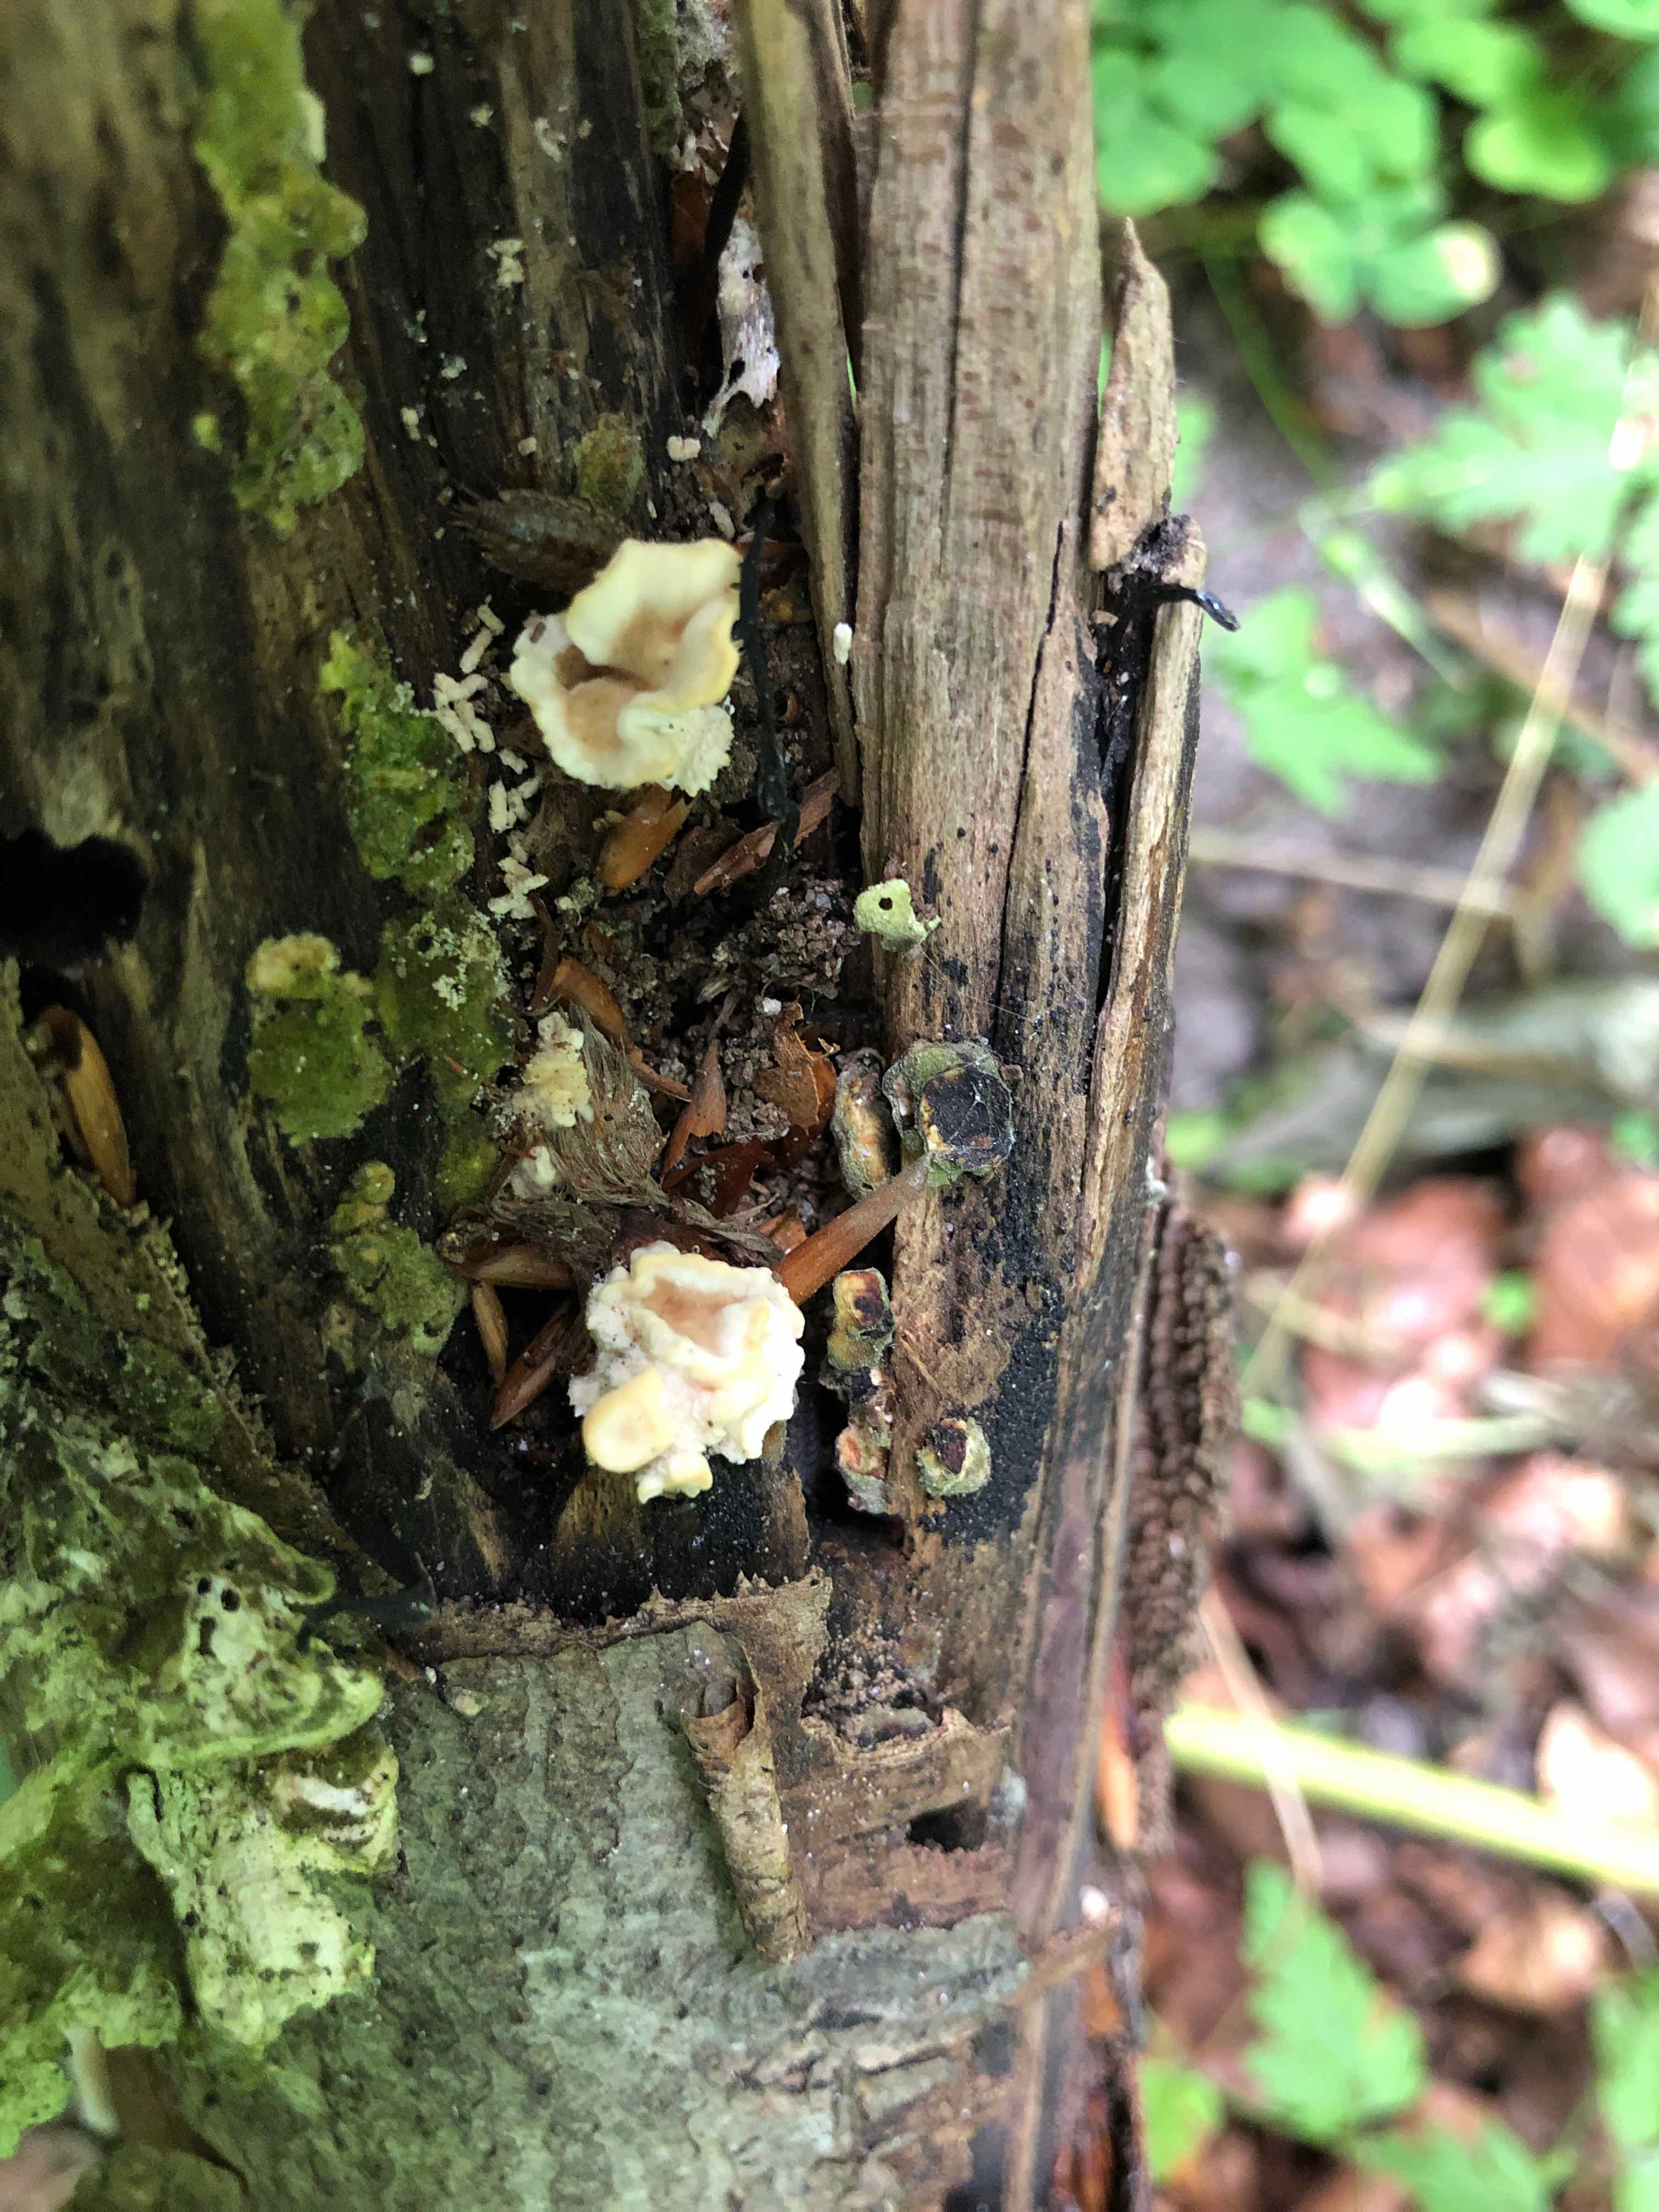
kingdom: Fungi
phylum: Basidiomycota
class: Agaricomycetes
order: Polyporales
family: Polyporaceae
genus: Trametes
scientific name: Trametes
